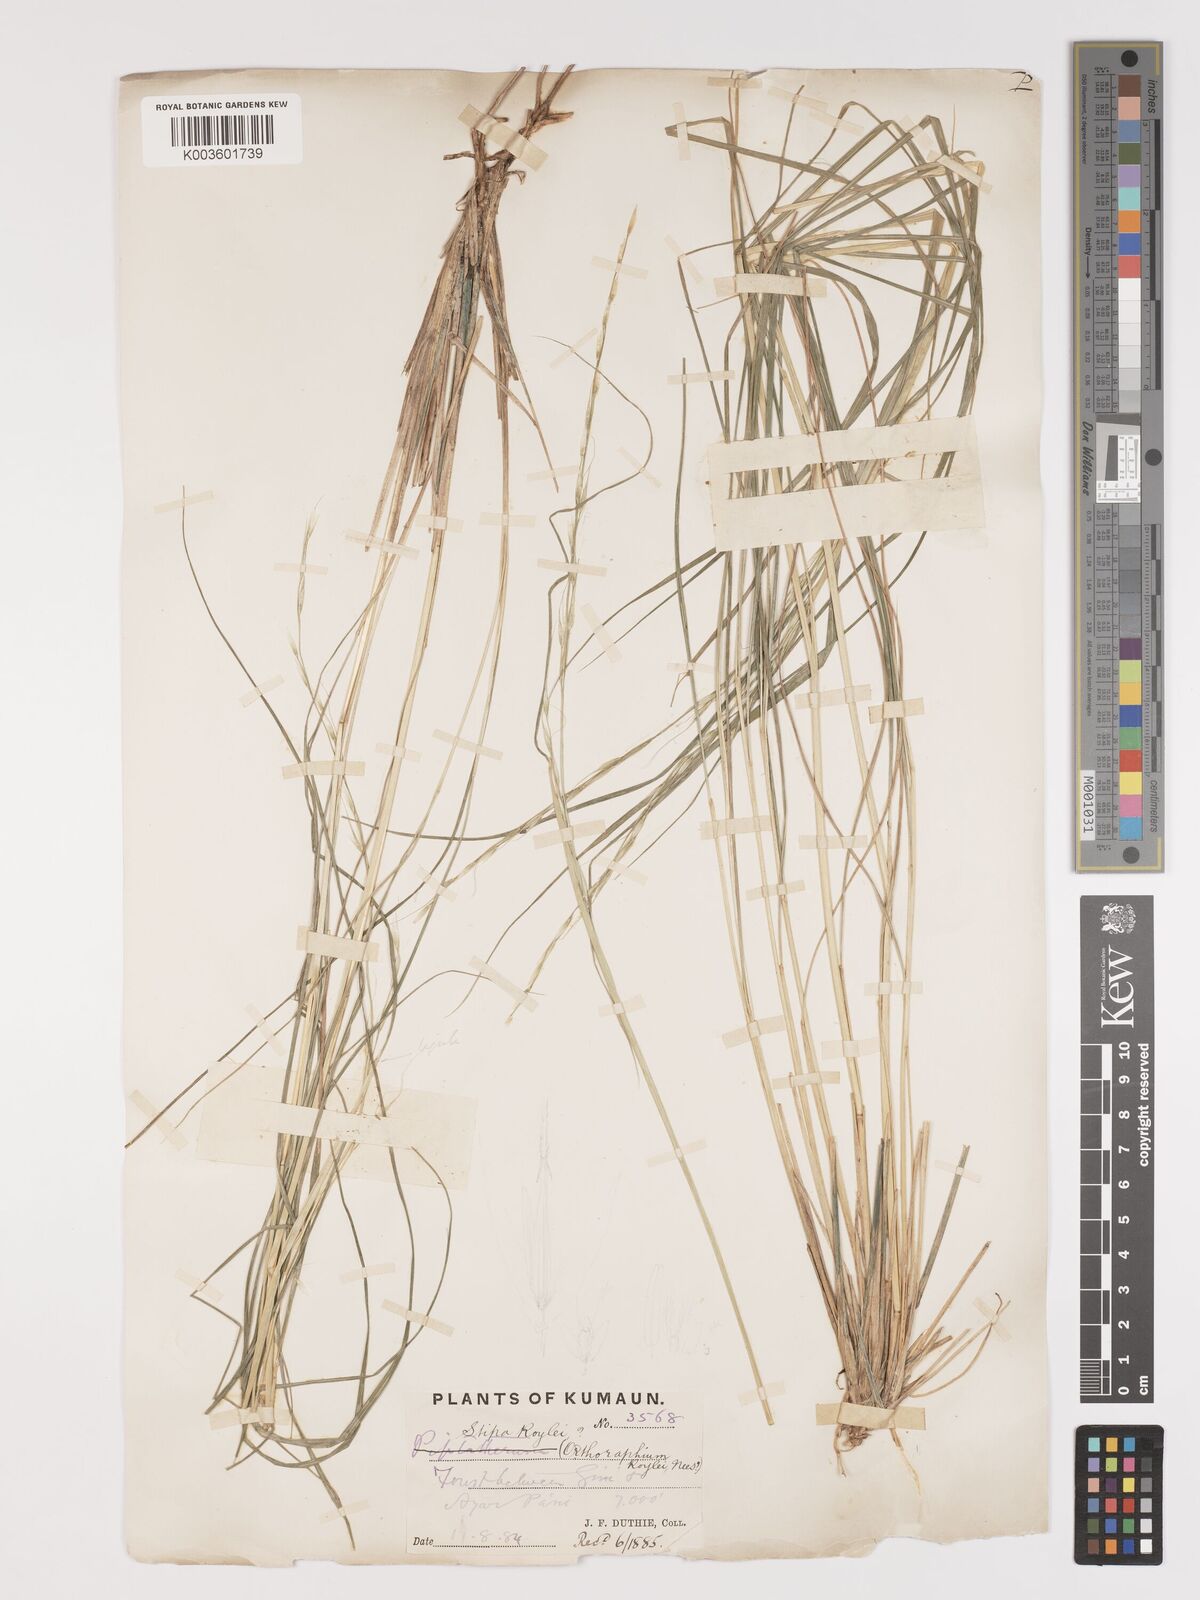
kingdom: Plantae
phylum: Tracheophyta
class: Liliopsida
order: Poales
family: Poaceae
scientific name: Poaceae
